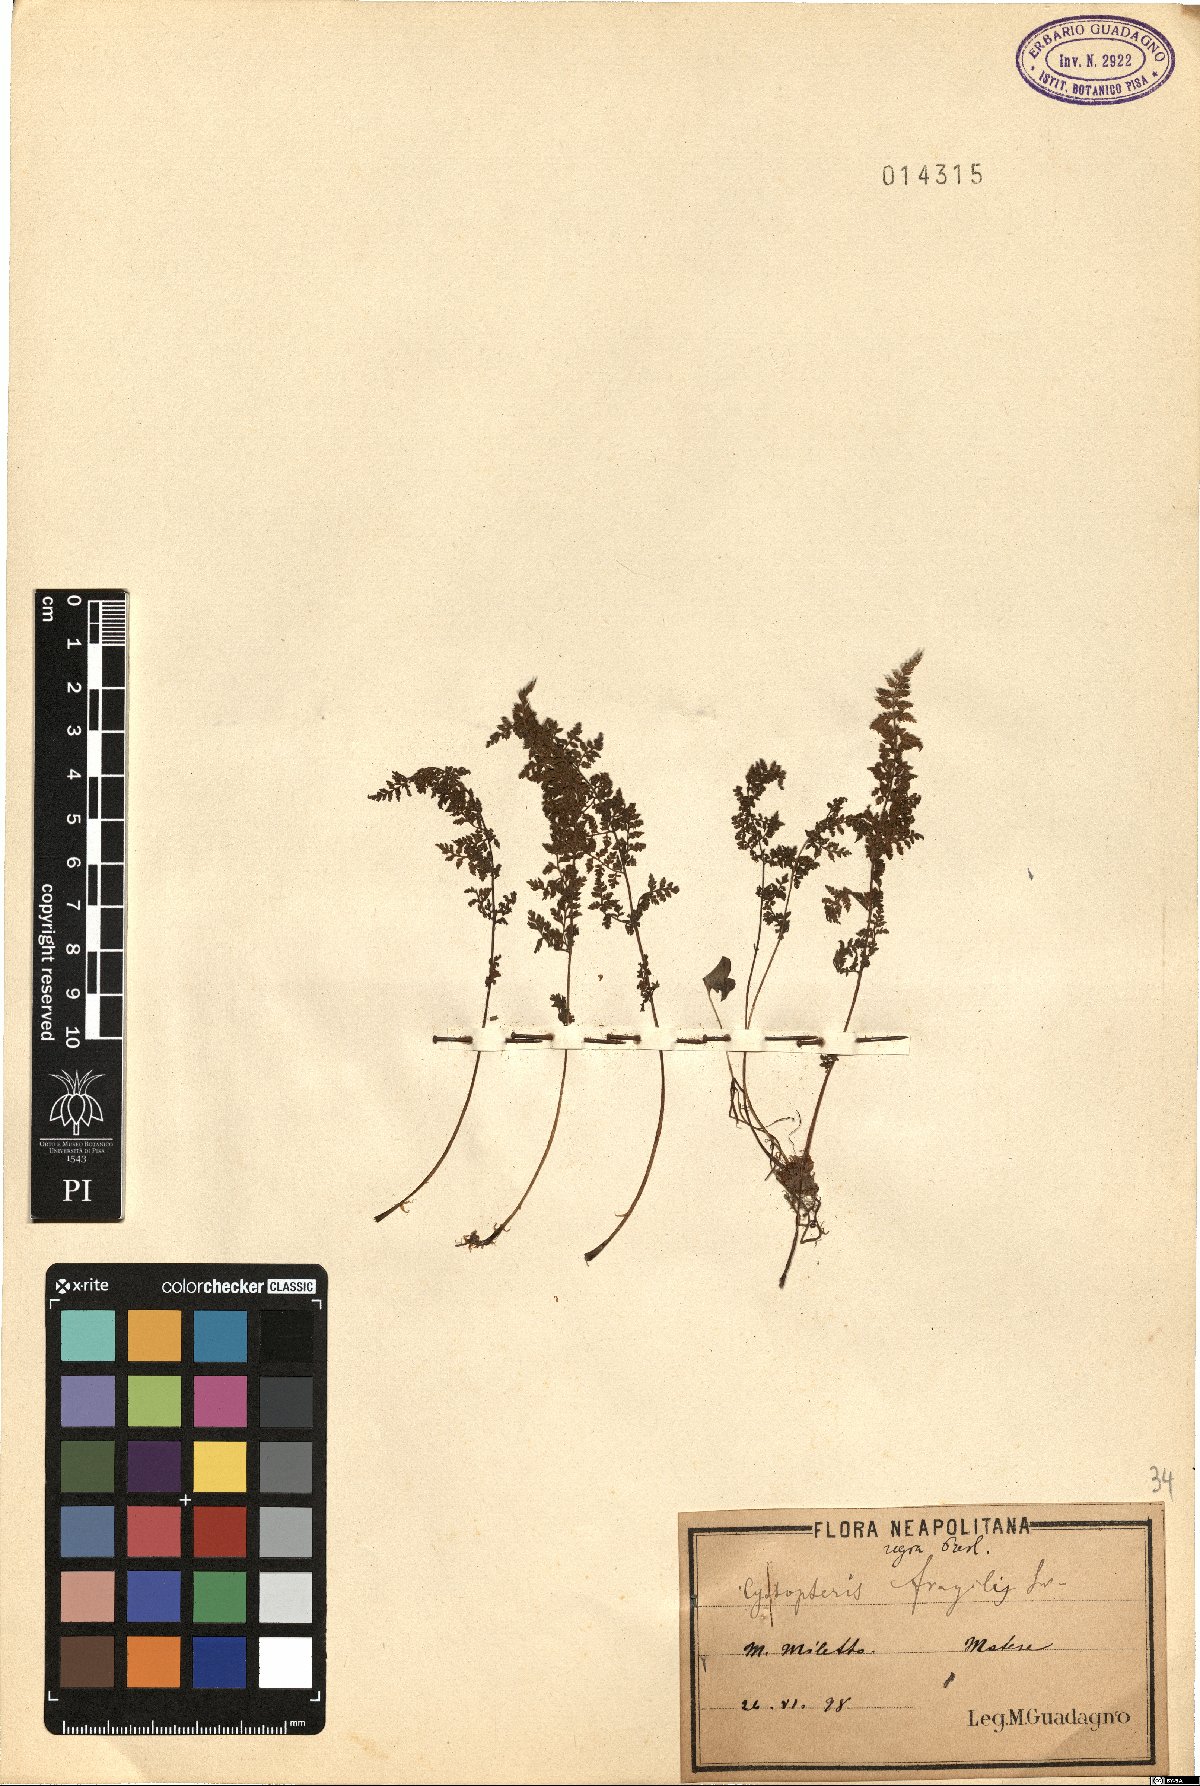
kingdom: Plantae
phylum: Tracheophyta
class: Polypodiopsida
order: Polypodiales
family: Cystopteridaceae
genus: Cystopteris
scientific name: Cystopteris alpina
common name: Alpine bladder-fern
